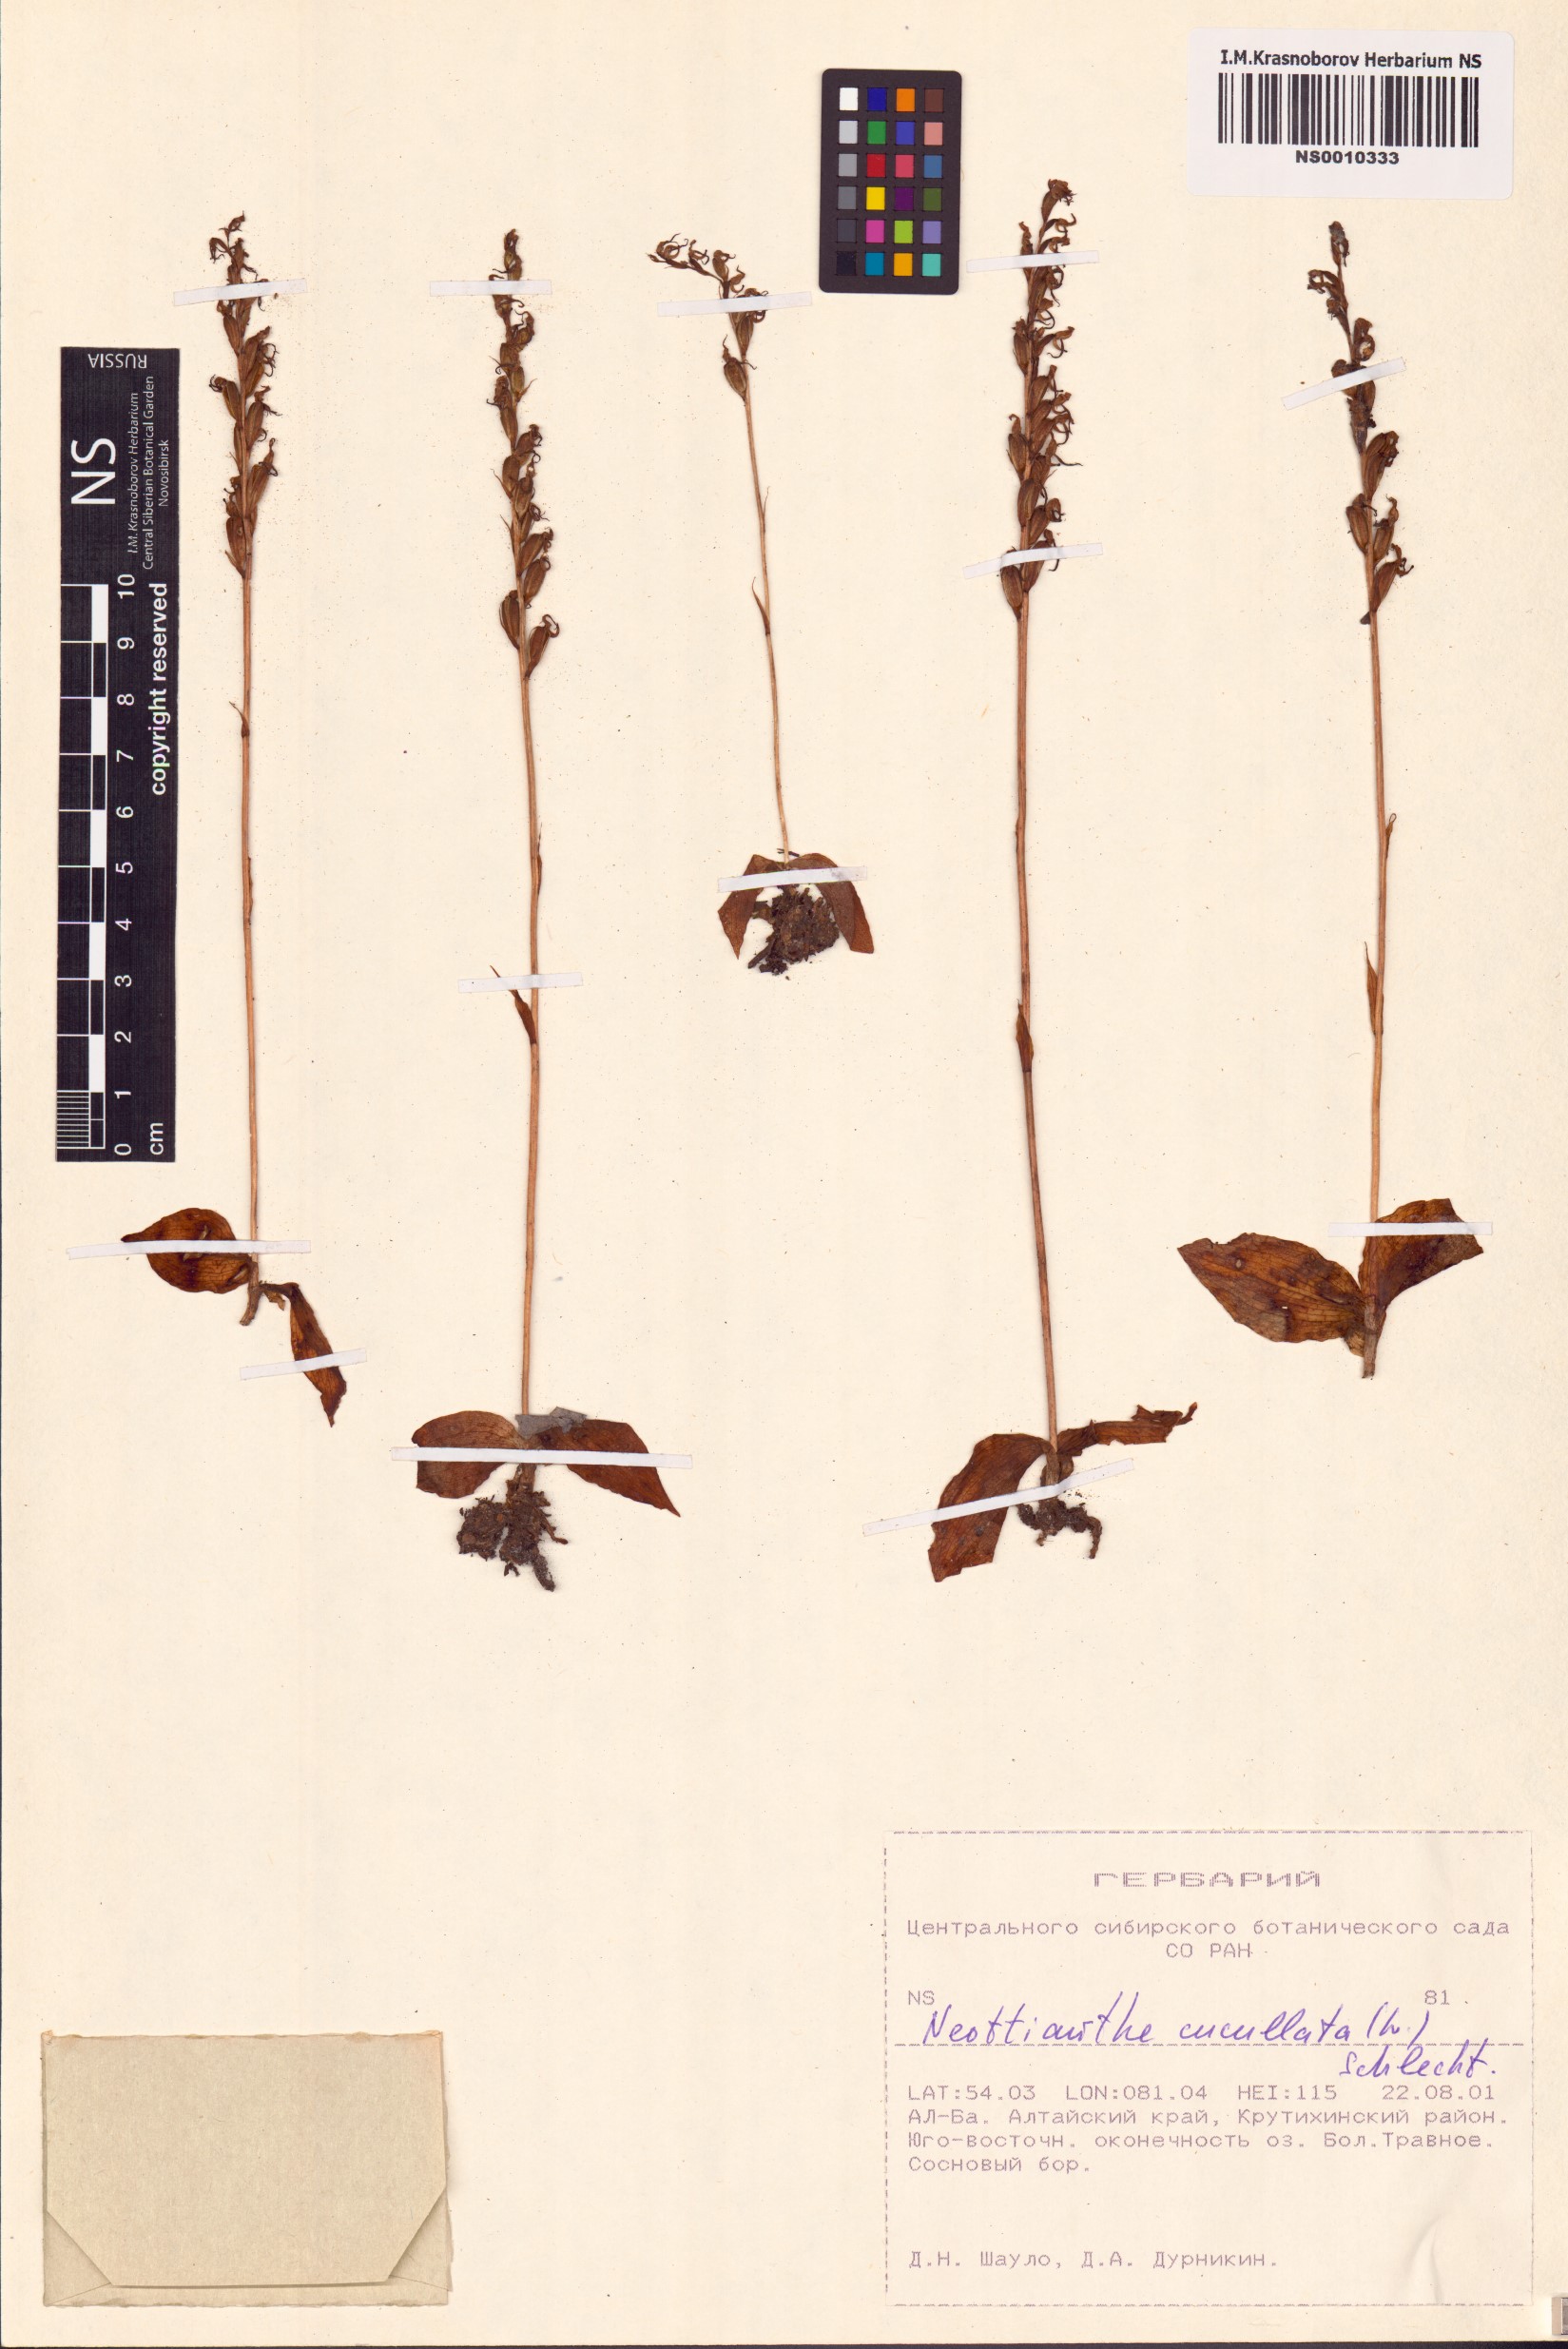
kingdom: Plantae
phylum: Tracheophyta
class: Liliopsida
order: Asparagales
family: Orchidaceae
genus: Hemipilia
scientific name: Hemipilia cucullata
